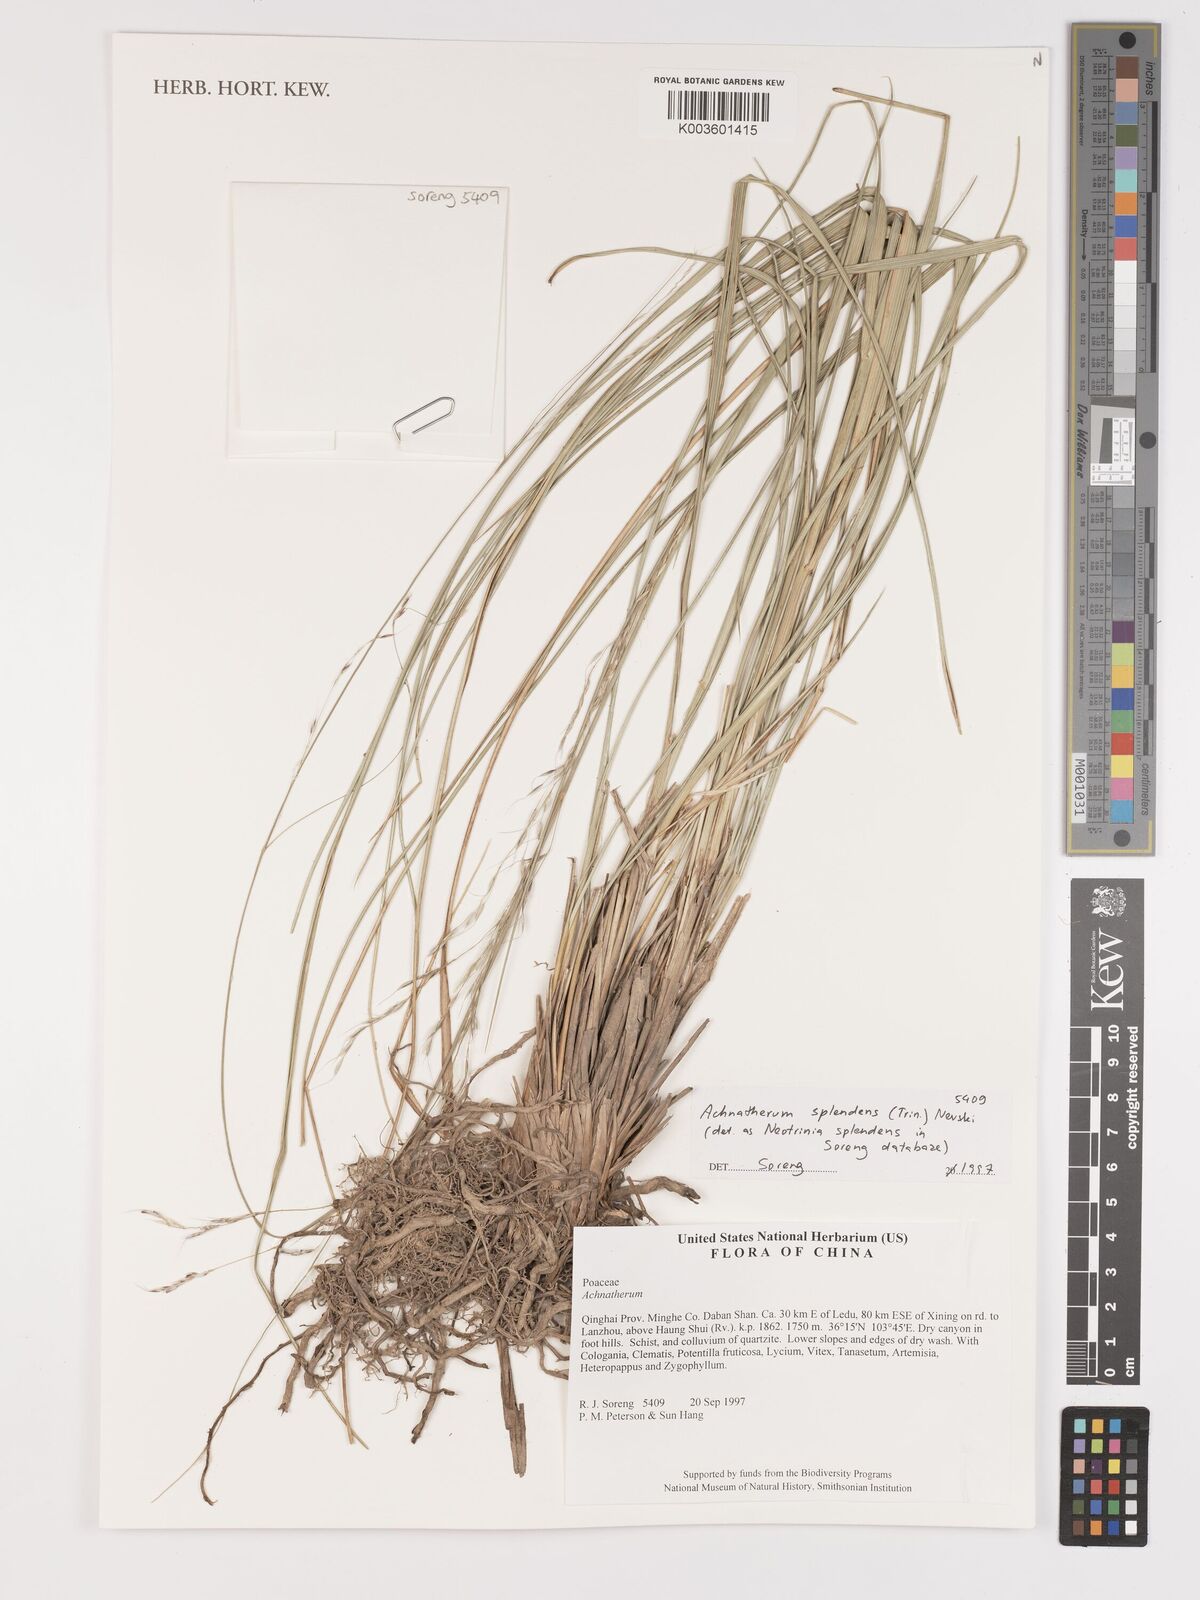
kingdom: Plantae
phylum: Tracheophyta
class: Liliopsida
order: Poales
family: Poaceae
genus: Neotrinia
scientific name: Neotrinia splendens
